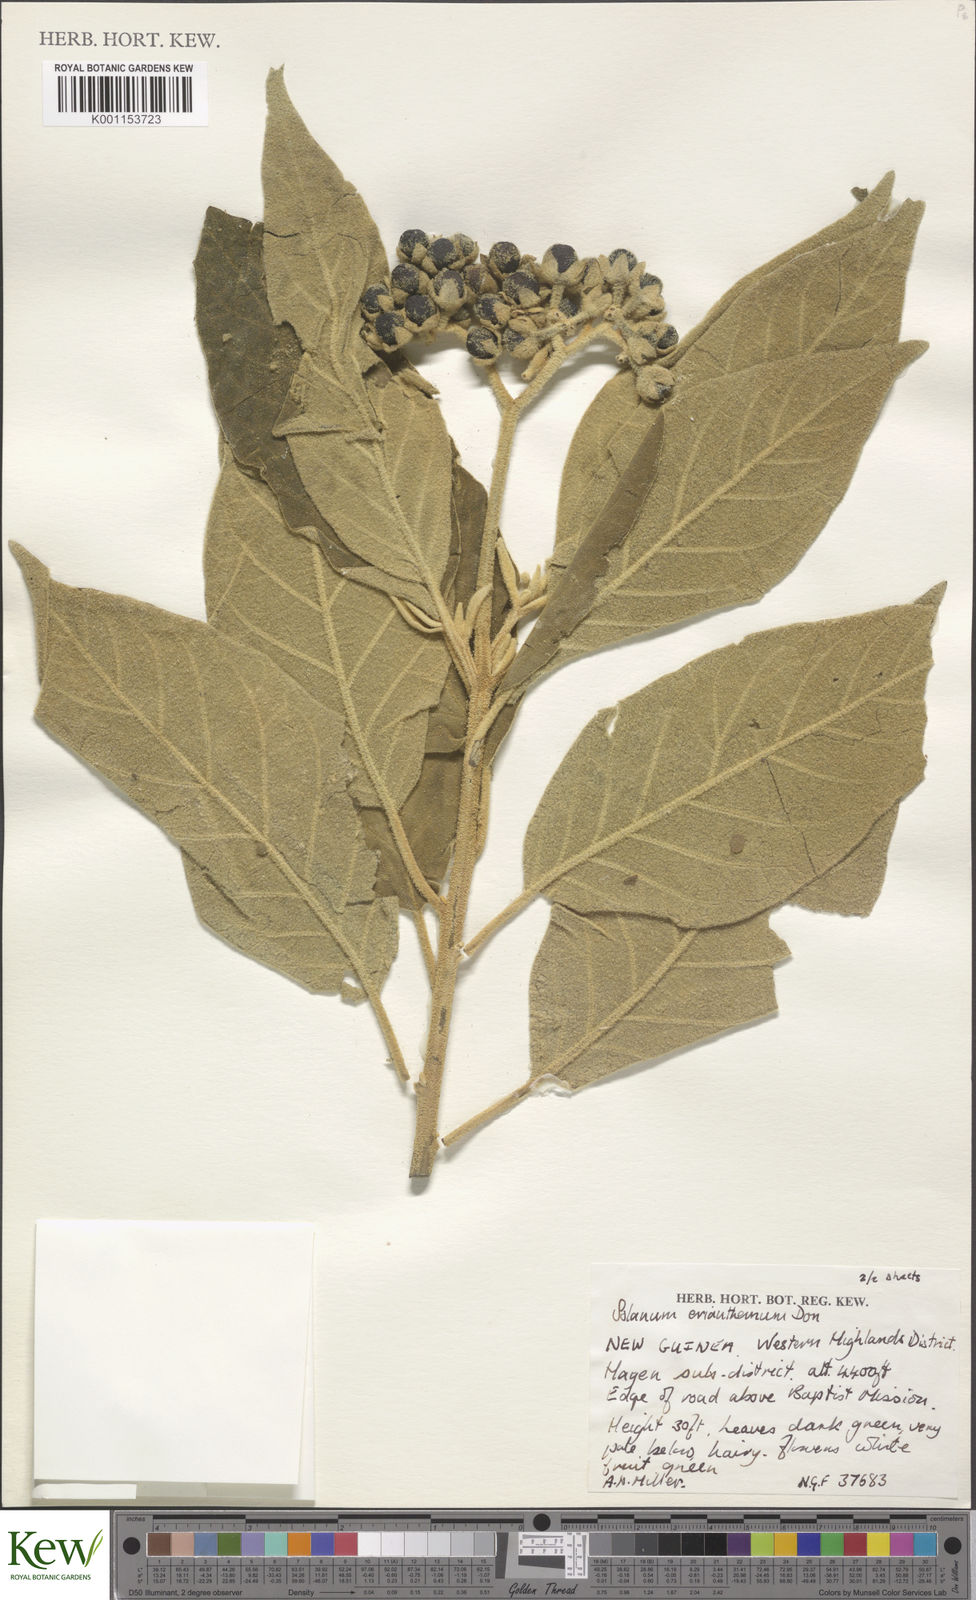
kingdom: Plantae
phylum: Tracheophyta
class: Magnoliopsida
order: Solanales
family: Solanaceae
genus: Solanum
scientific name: Solanum erianthum
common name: Tobacco-tree
